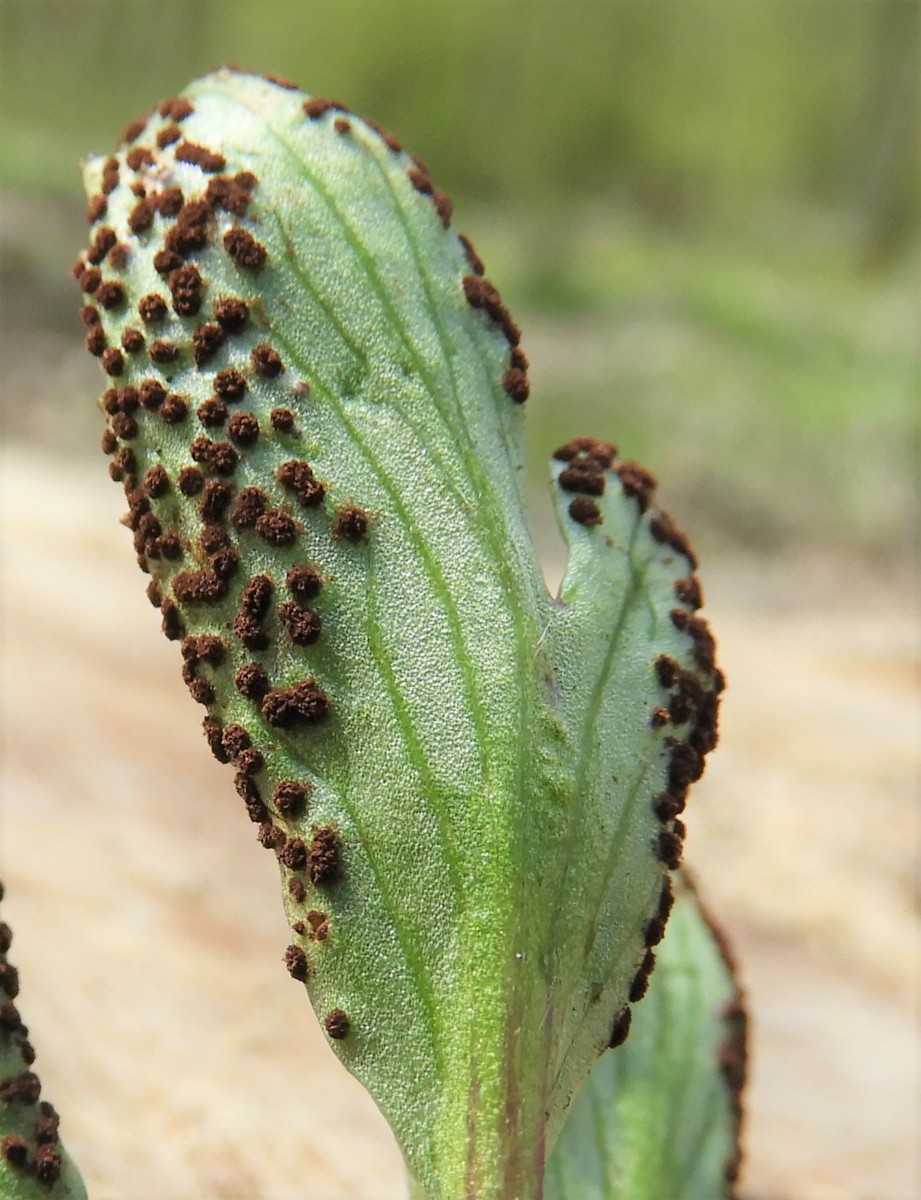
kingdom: Fungi
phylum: Basidiomycota
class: Pucciniomycetes
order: Pucciniales
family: Tranzscheliaceae
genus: Tranzschelia
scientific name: Tranzschelia anemones
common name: anemone-knæksporerust
